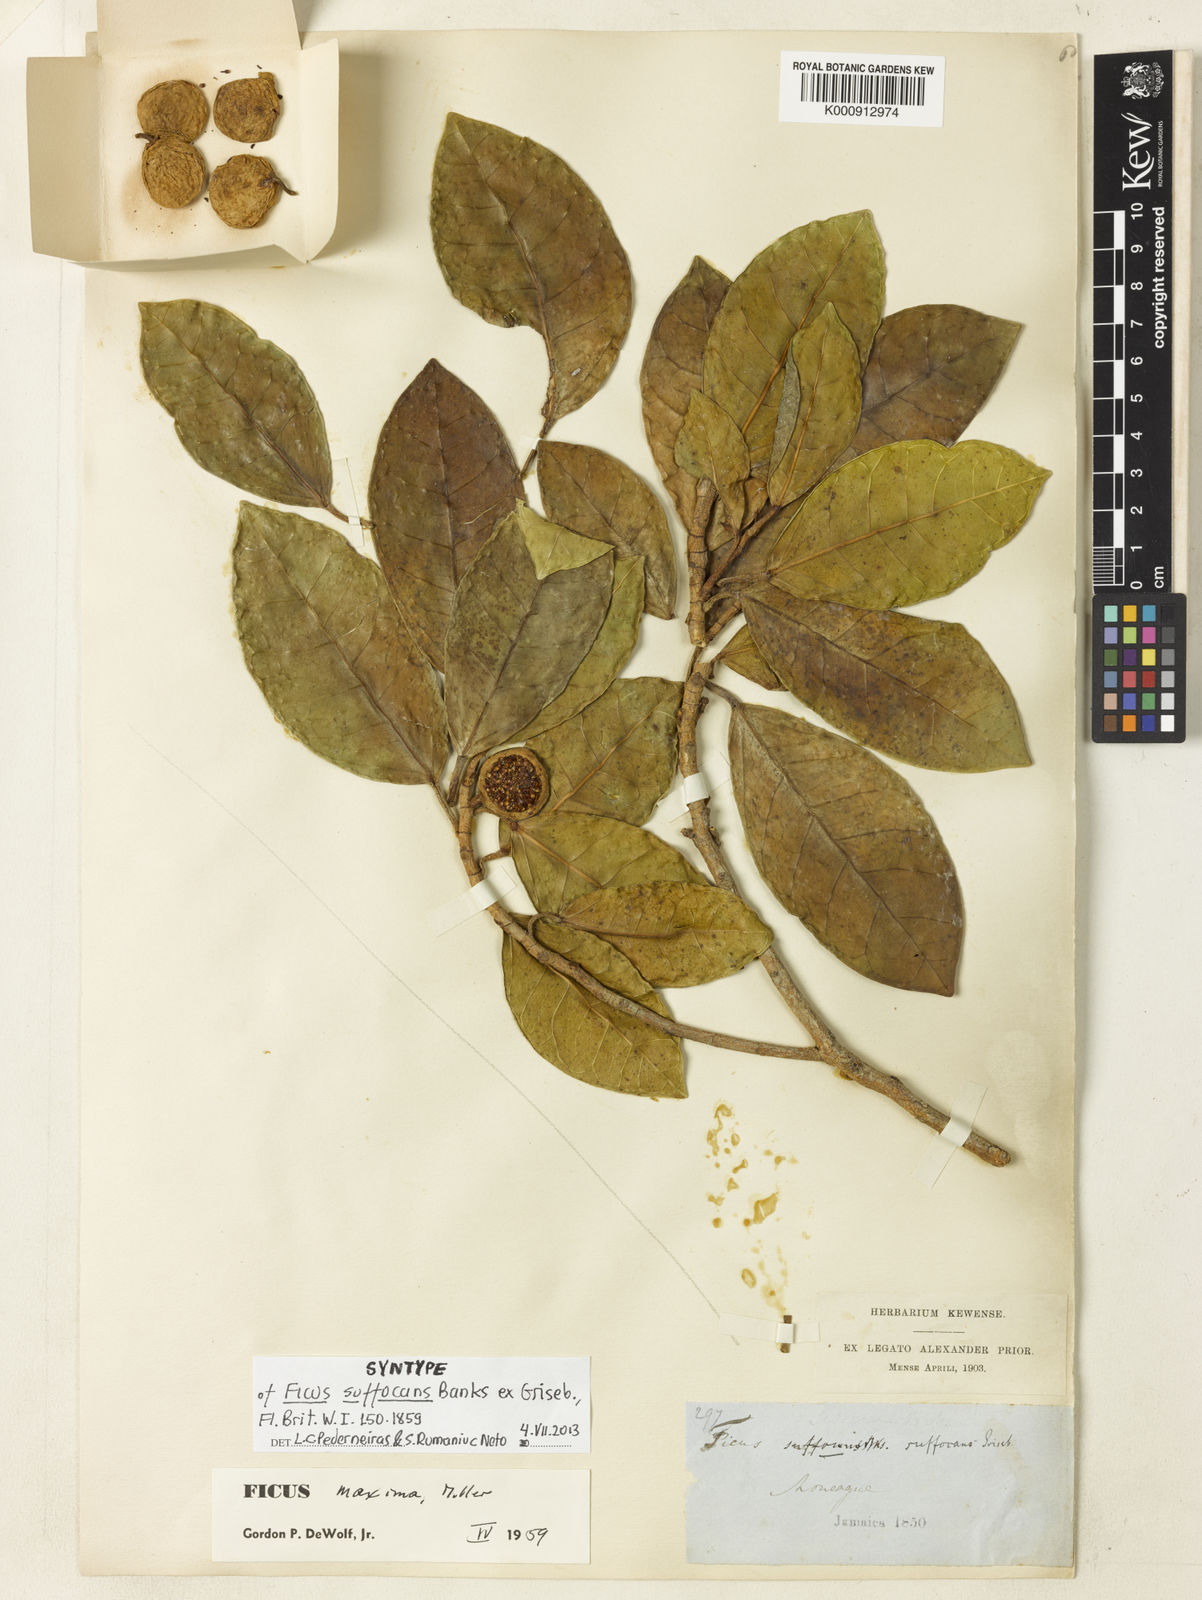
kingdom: Plantae
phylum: Tracheophyta
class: Magnoliopsida
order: Rosales
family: Moraceae
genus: Ficus
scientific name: Ficus maxima
